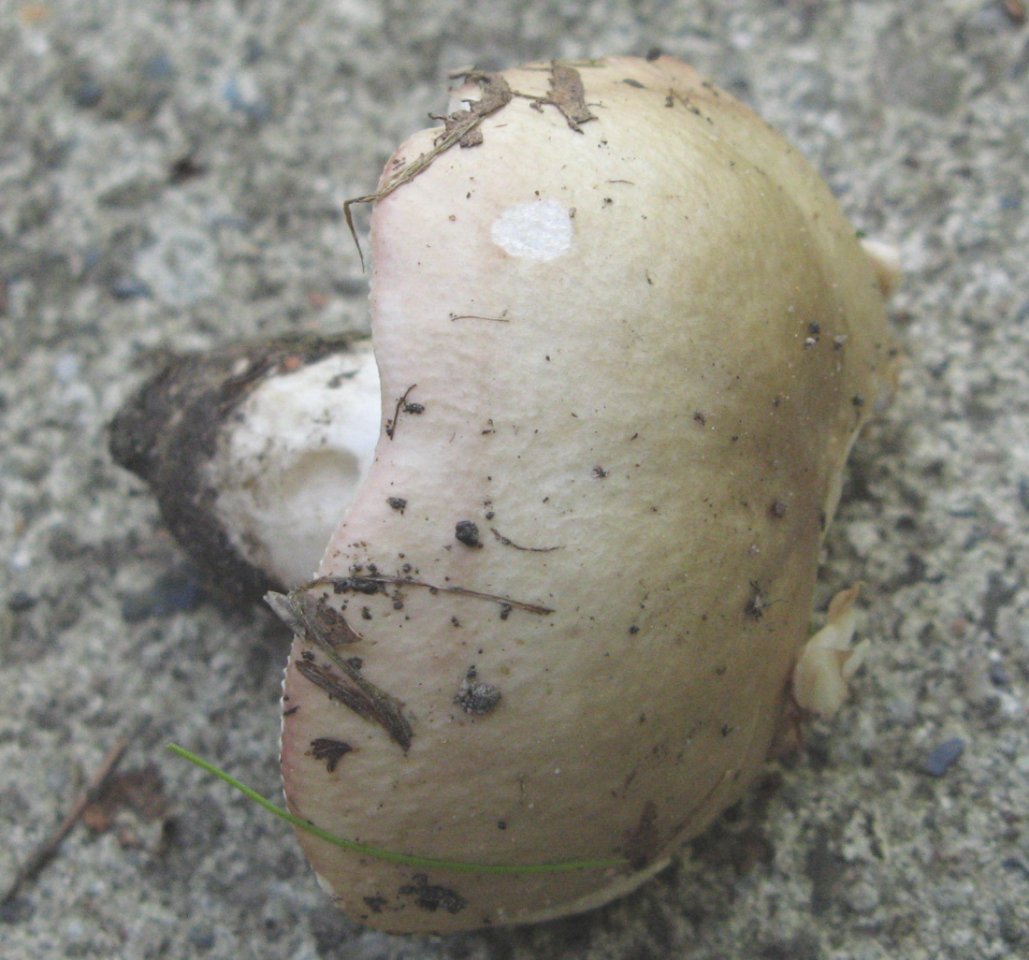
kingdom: Fungi
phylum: Basidiomycota
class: Agaricomycetes
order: Russulales
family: Russulaceae
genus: Russula
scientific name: Russula depallens
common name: falmende skørhat
